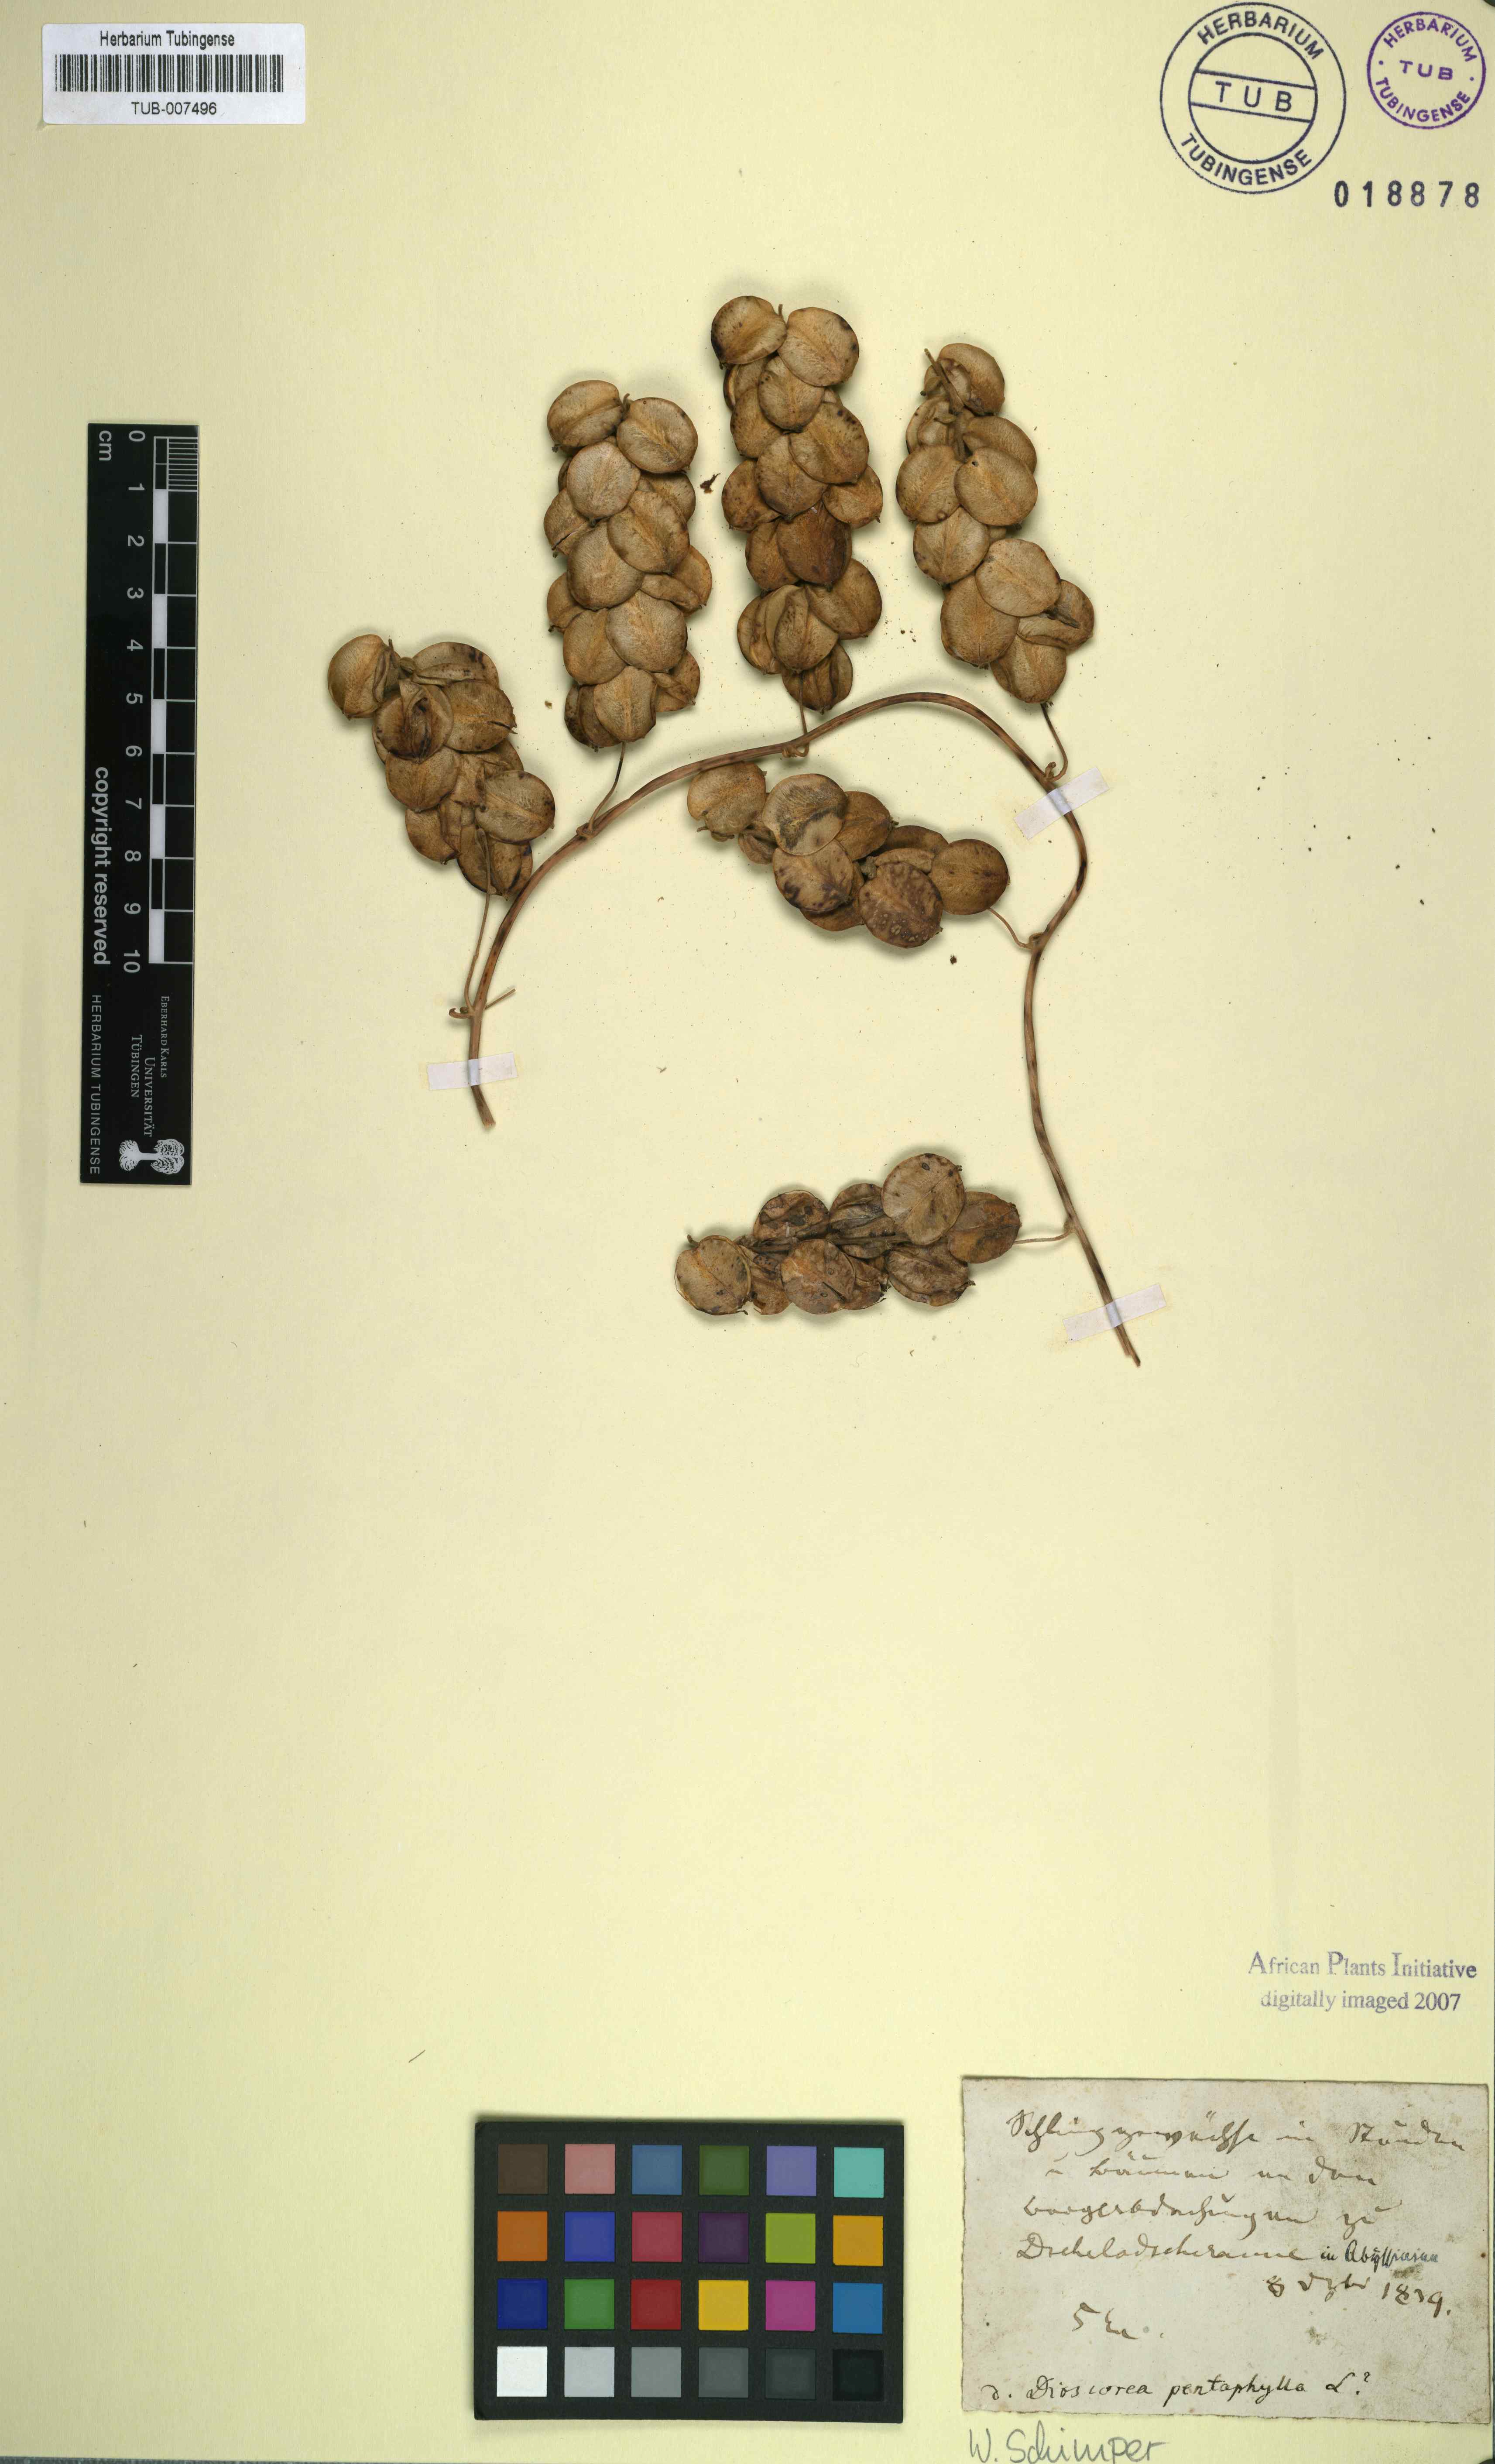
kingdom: Plantae
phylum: Tracheophyta
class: Liliopsida
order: Dioscoreales
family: Dioscoreaceae
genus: Dioscorea
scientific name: Dioscorea pentaphylla
